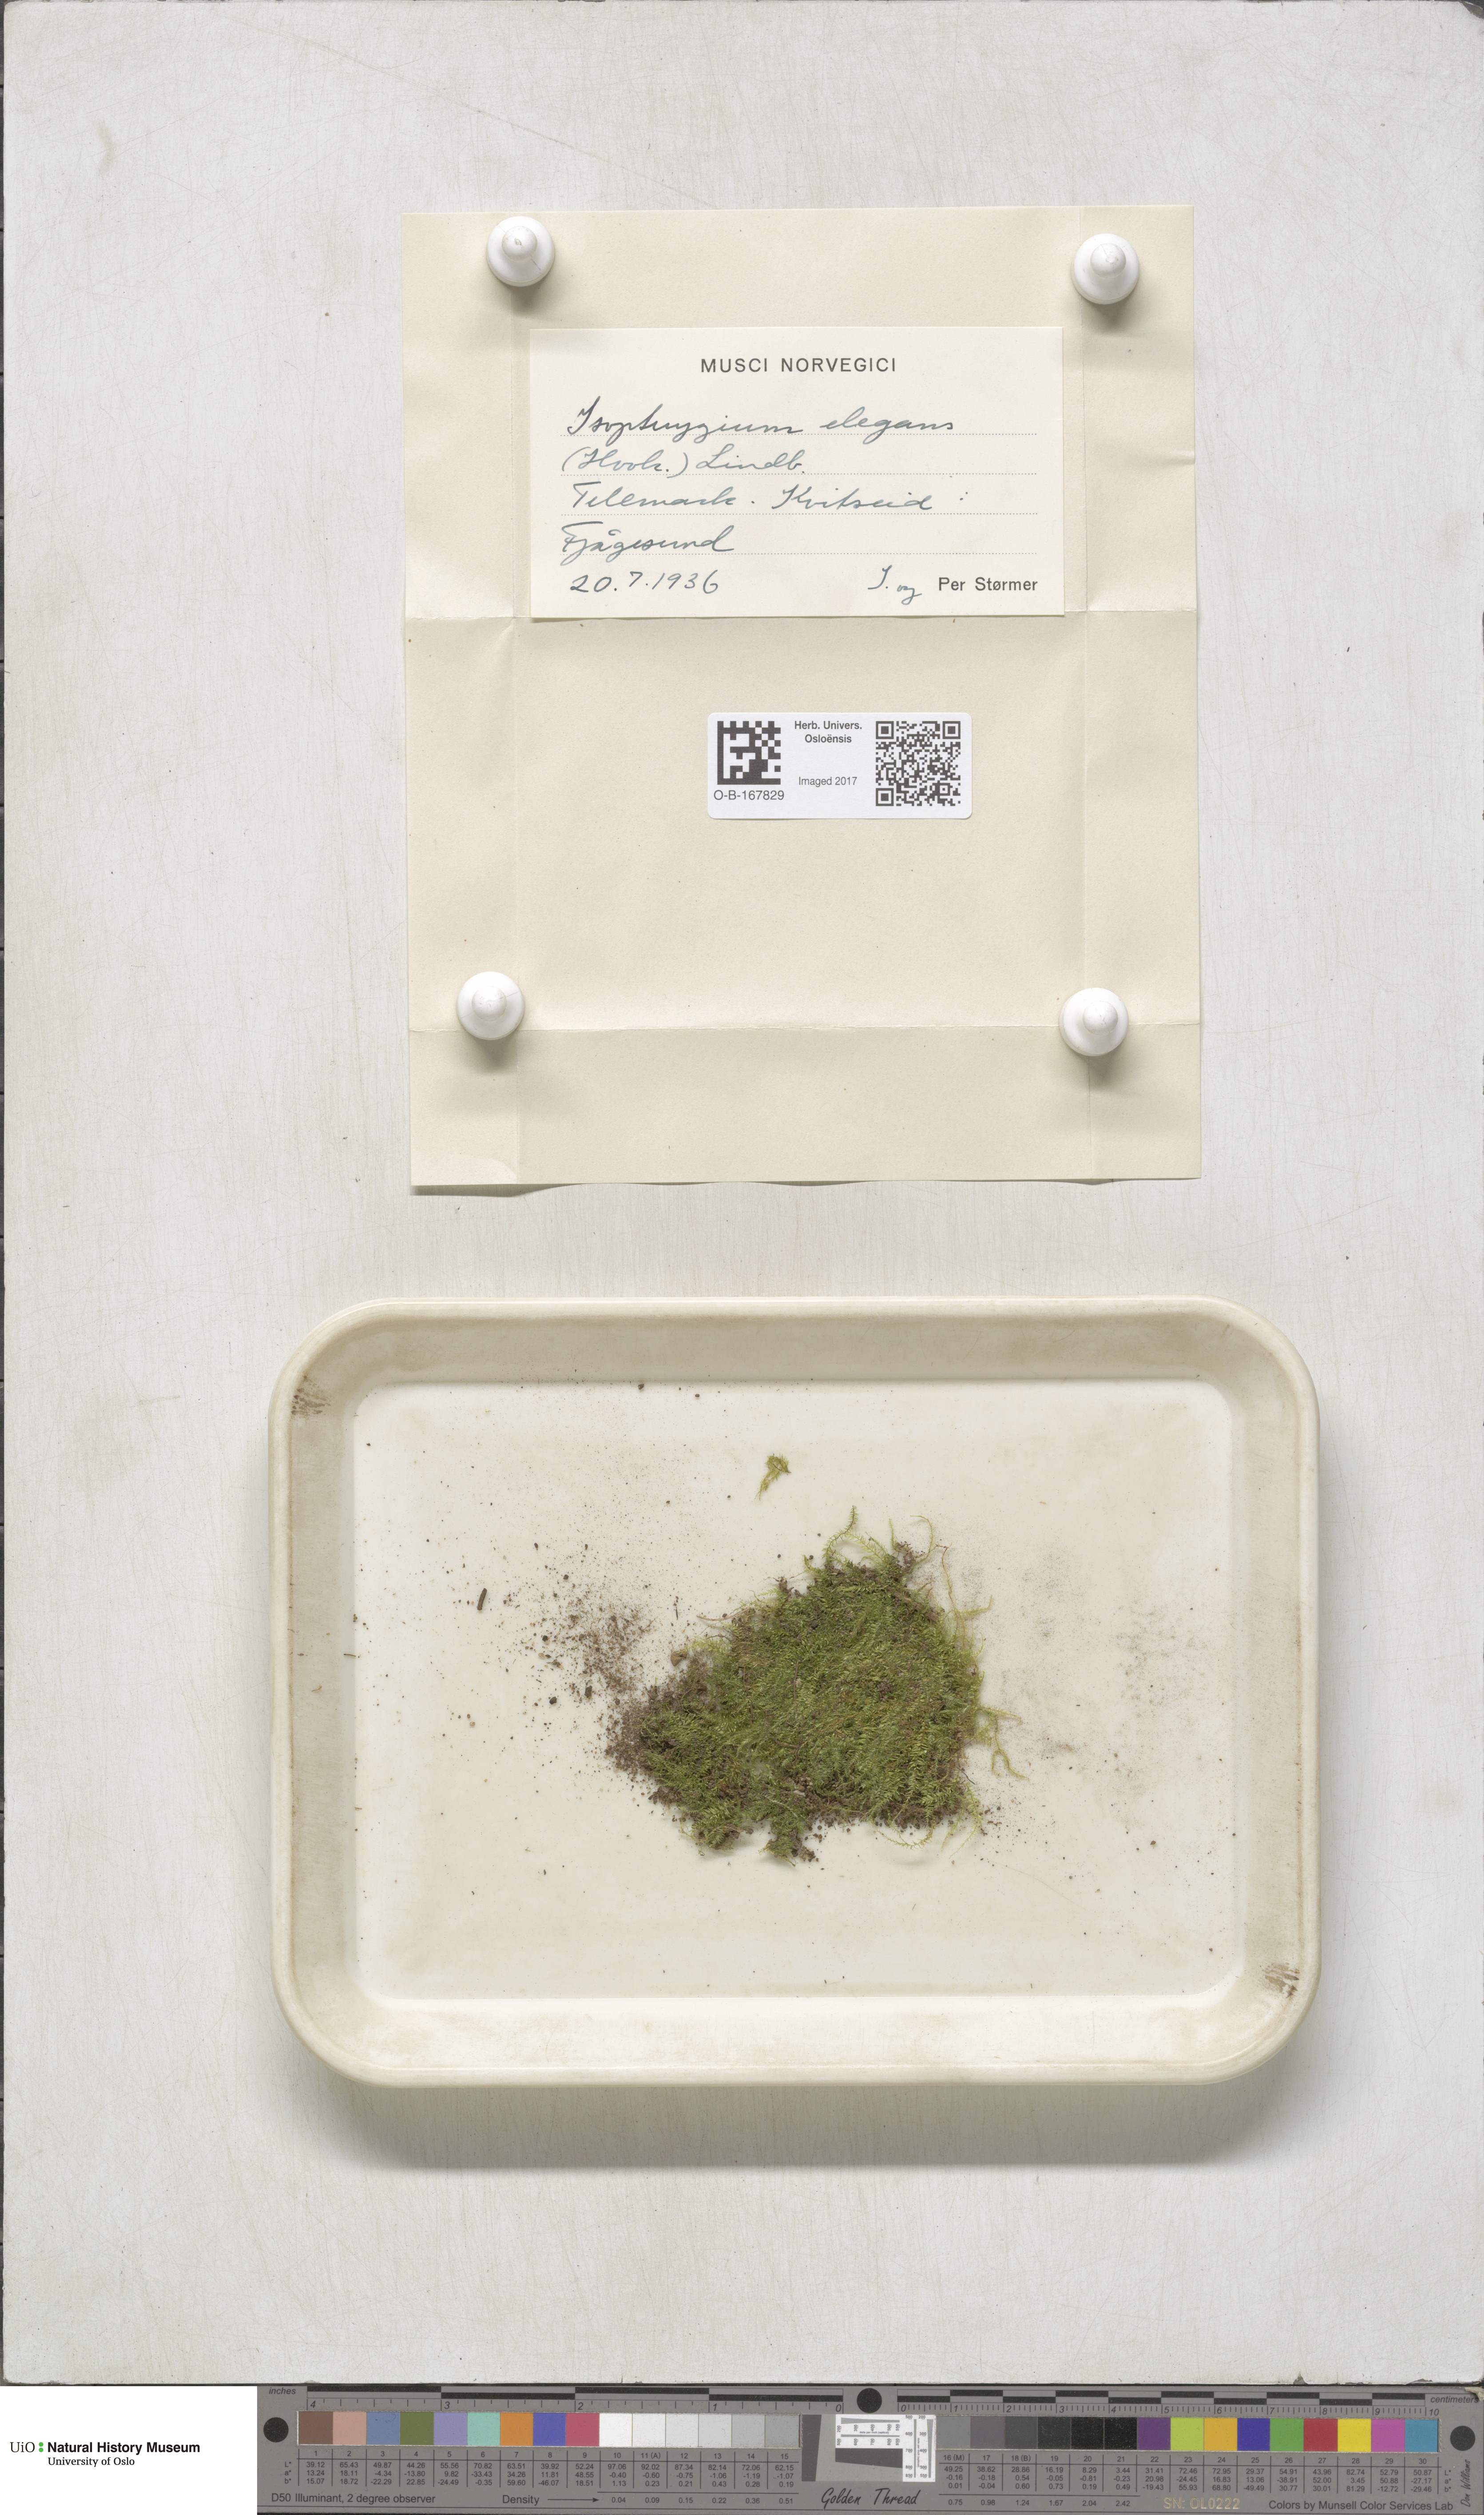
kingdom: Plantae
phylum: Bryophyta
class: Bryopsida
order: Hypnales
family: Plagiotheciaceae
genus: Pseudotaxiphyllum
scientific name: Pseudotaxiphyllum elegans
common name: Elegant silk moss
